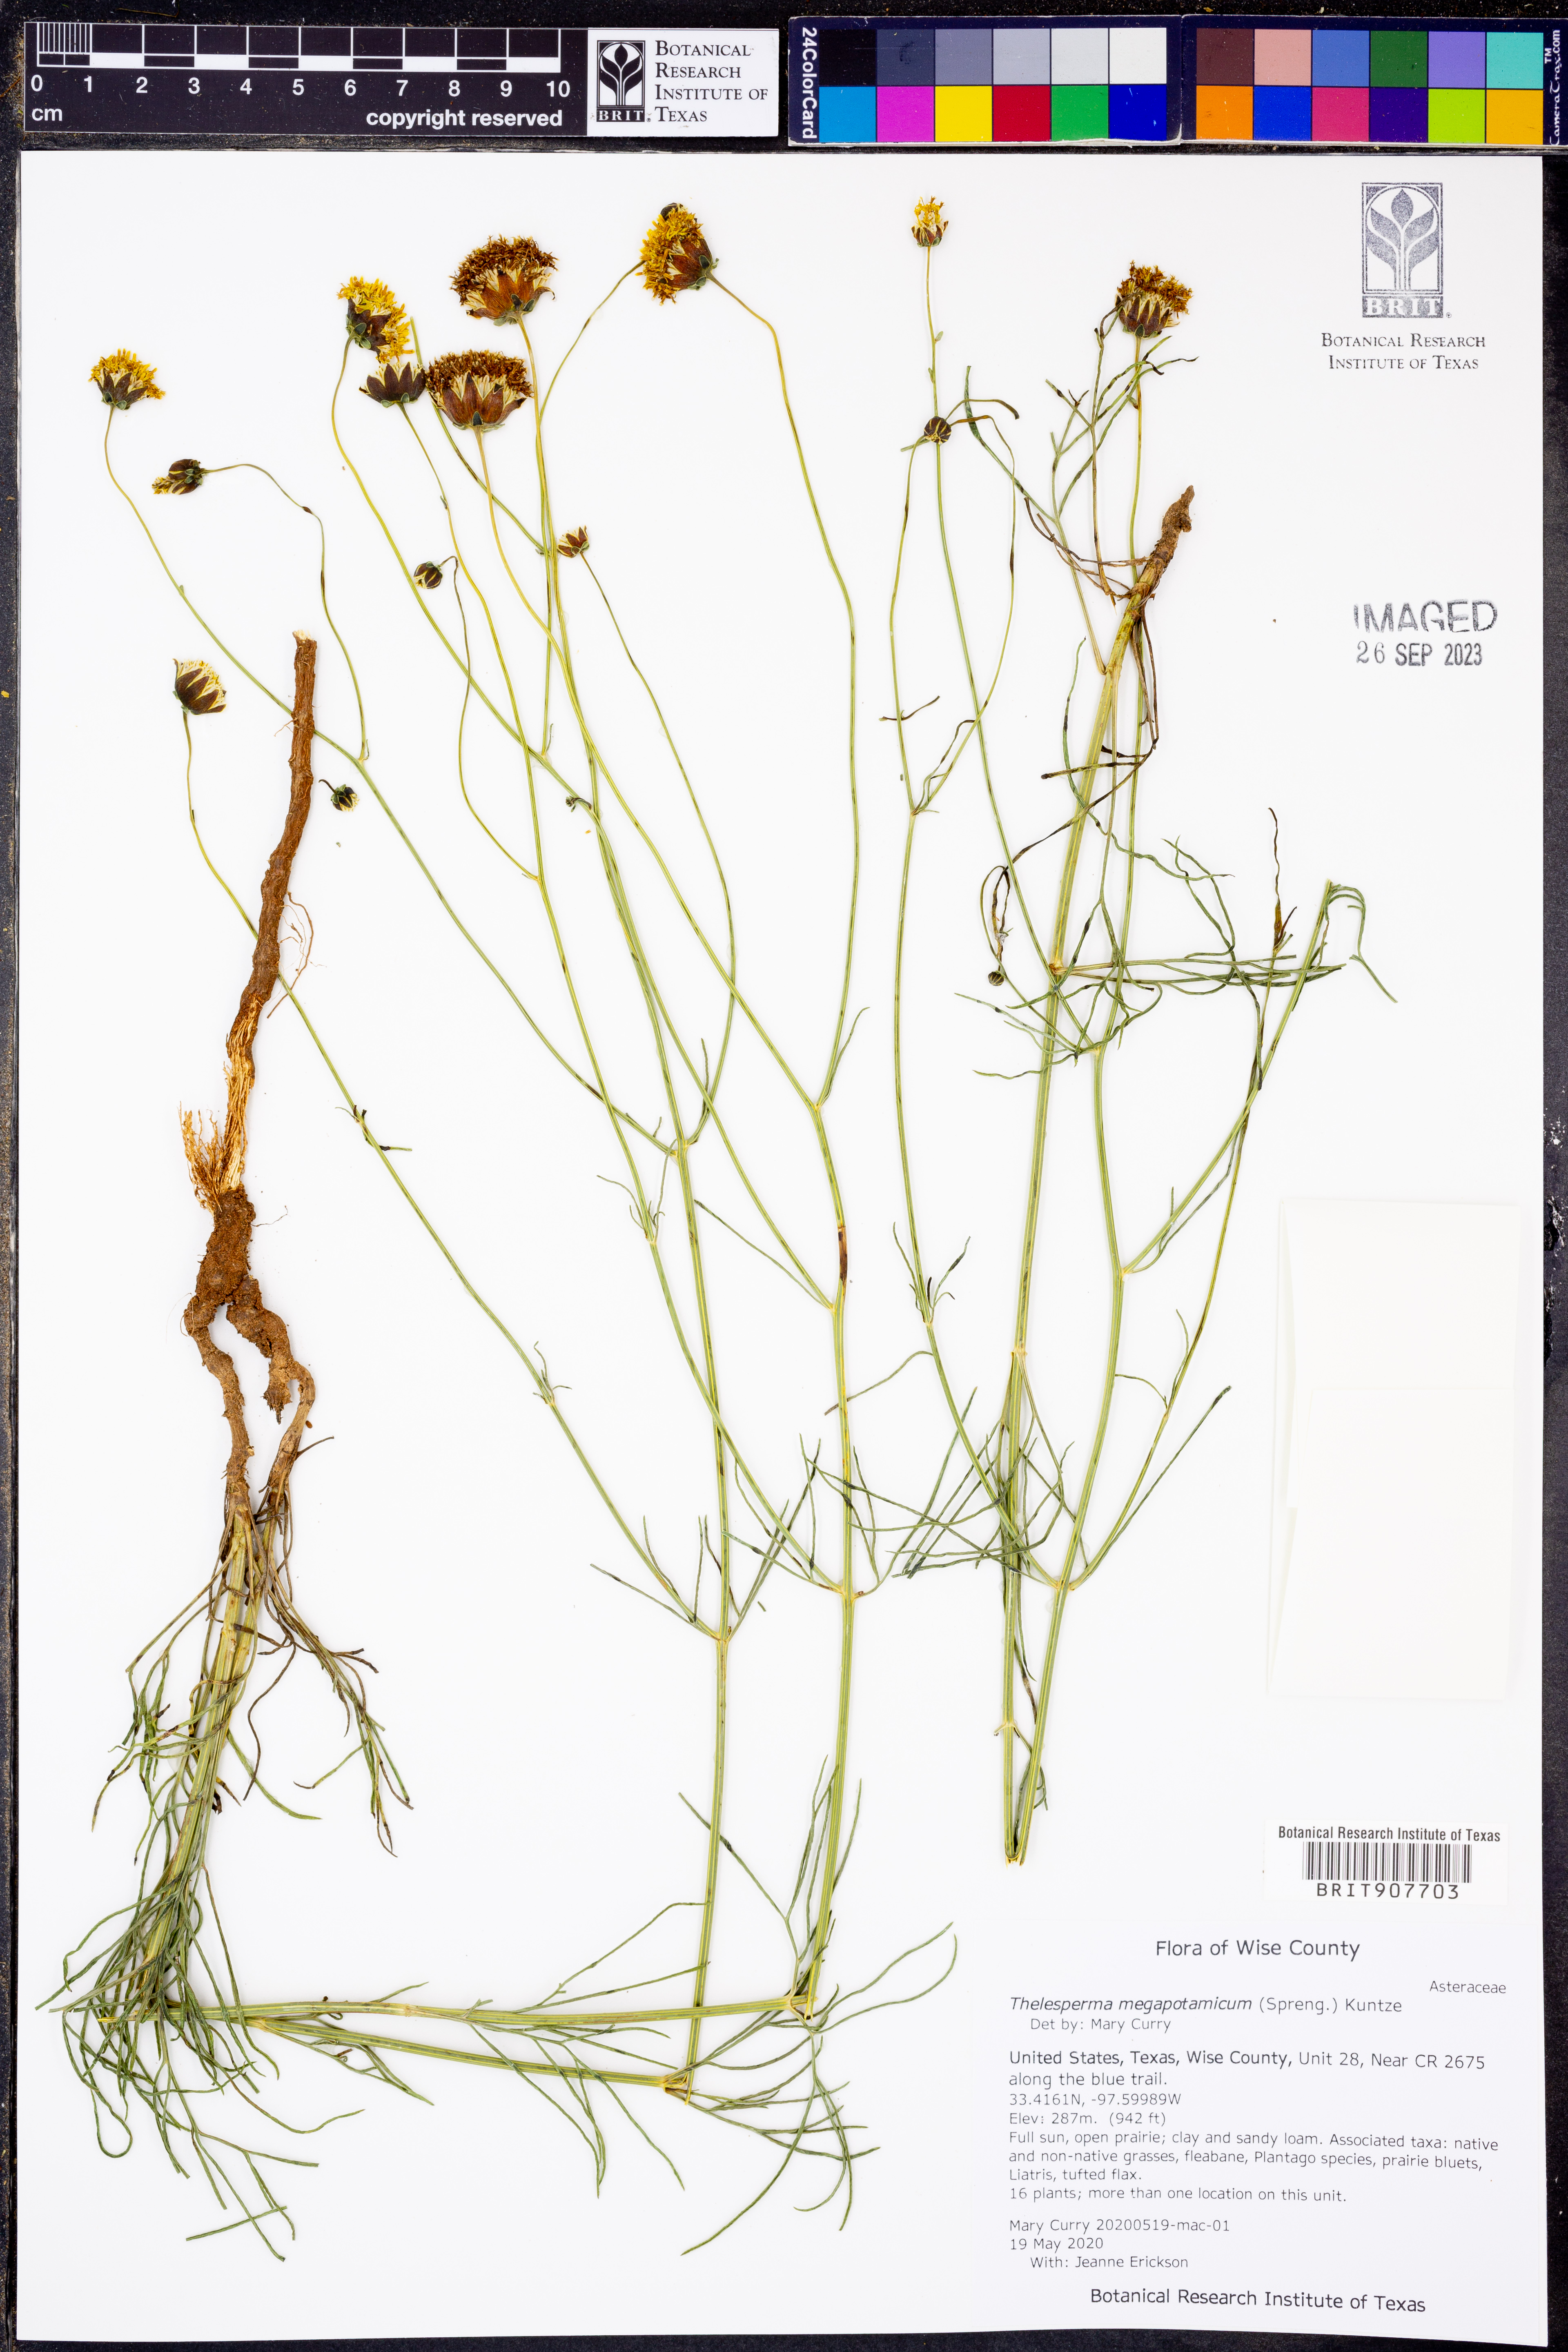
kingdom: Plantae
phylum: Tracheophyta
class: Magnoliopsida
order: Asterales
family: Asteraceae
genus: Thelesperma
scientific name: Thelesperma megapotamicum
